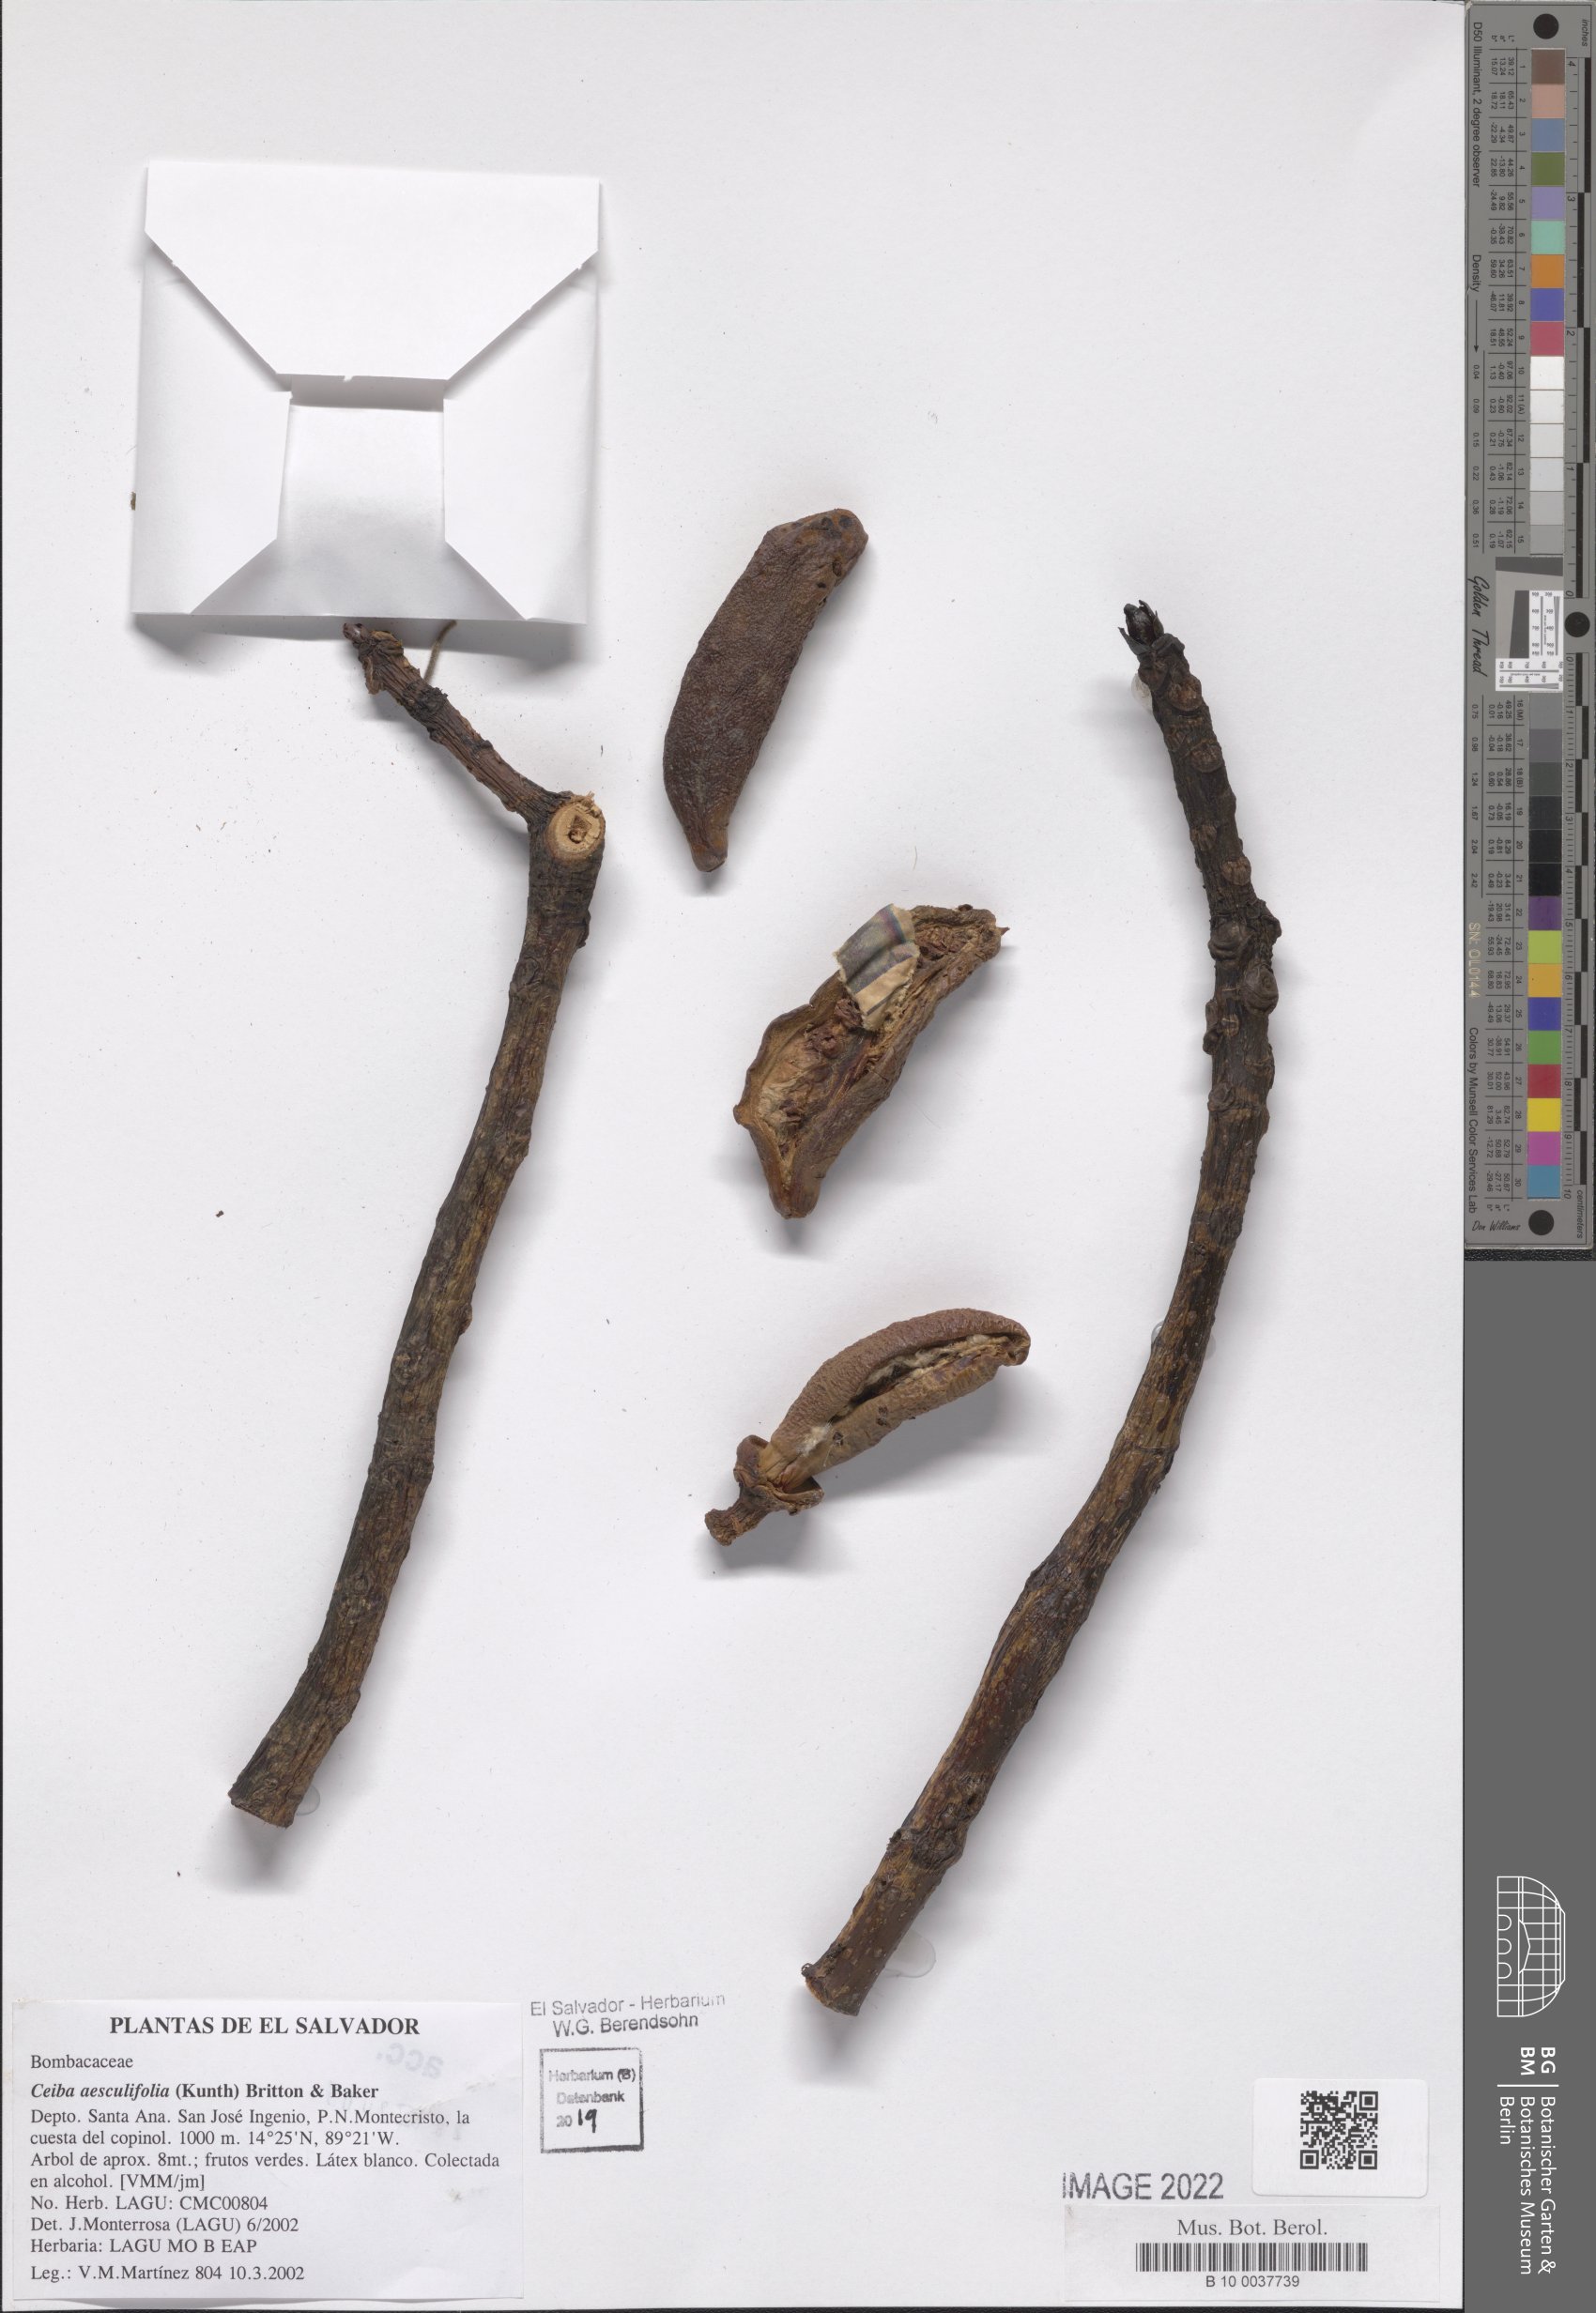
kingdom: Plantae
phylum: Tracheophyta
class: Magnoliopsida
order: Malvales
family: Malvaceae
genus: Ceiba
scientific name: Ceiba aesculifolia
